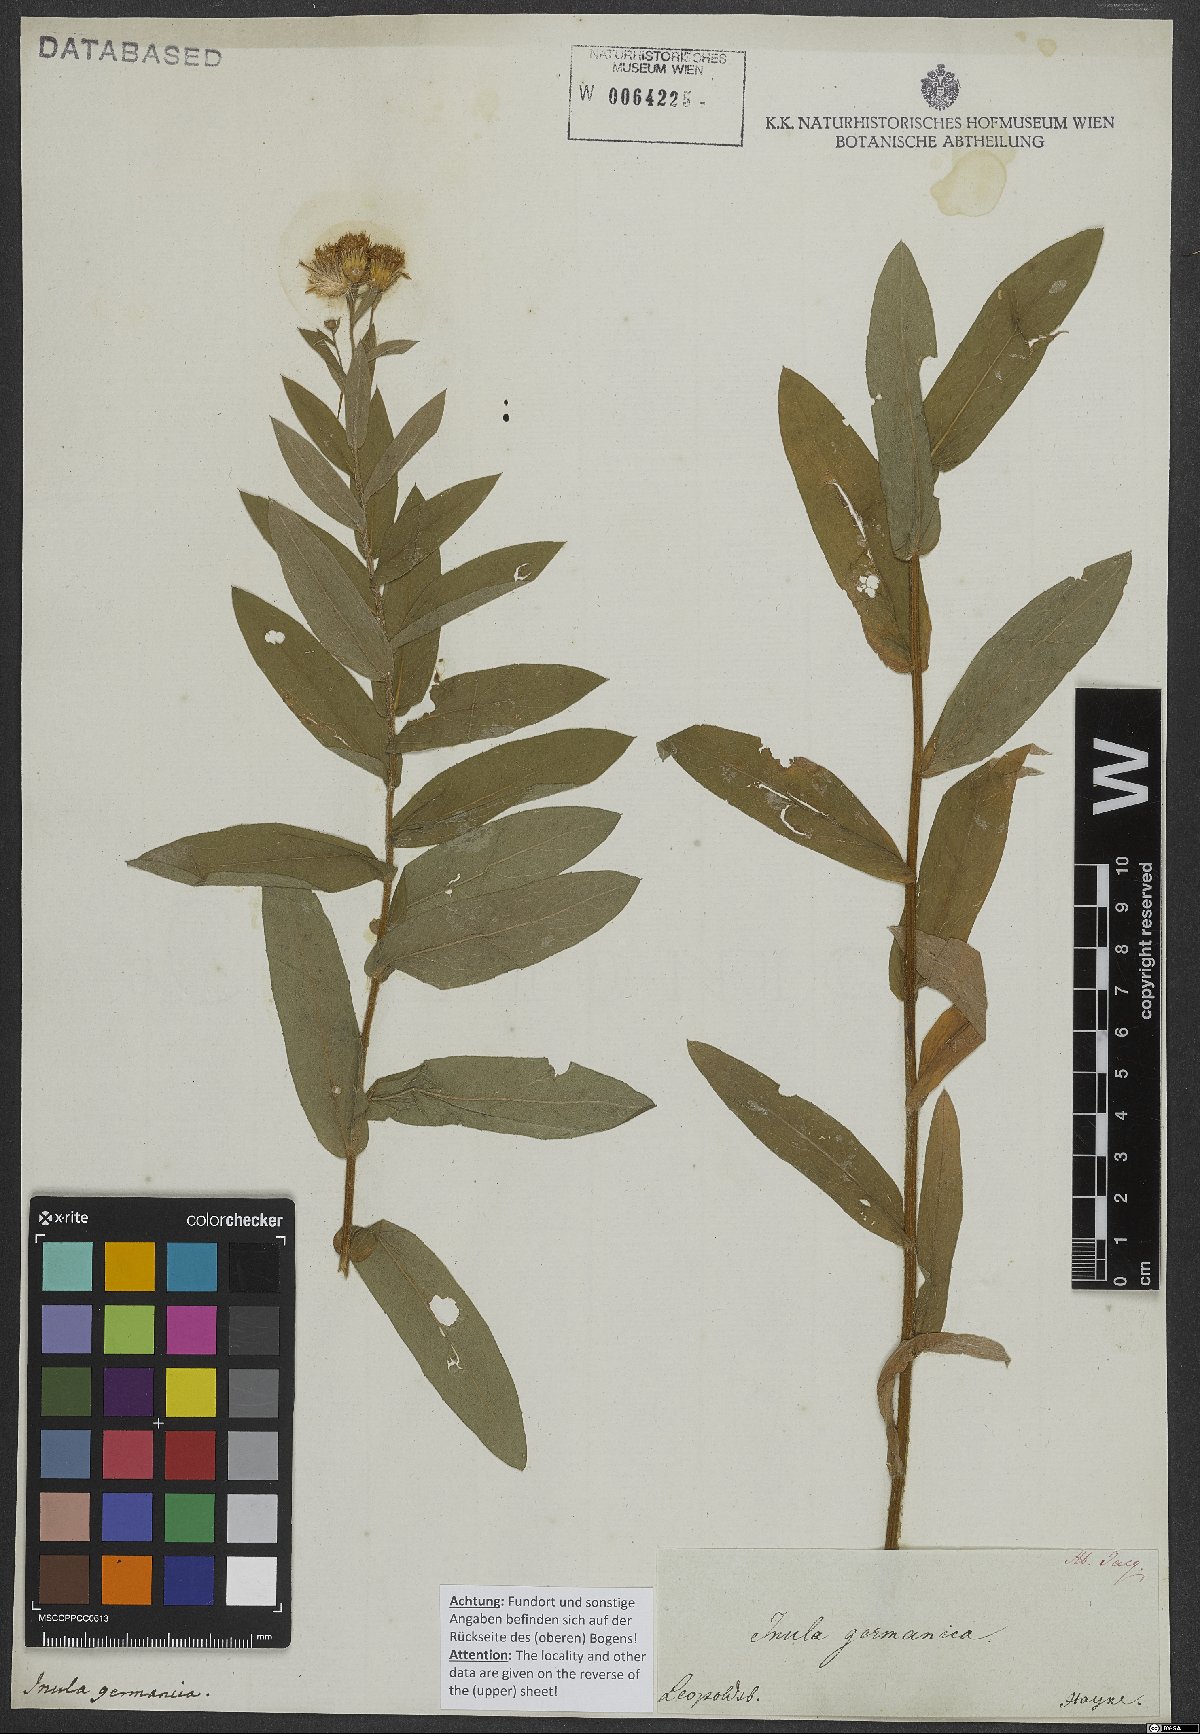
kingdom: Plantae
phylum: Tracheophyta
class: Magnoliopsida
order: Asterales
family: Asteraceae
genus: Pentanema
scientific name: Pentanema germanicum
